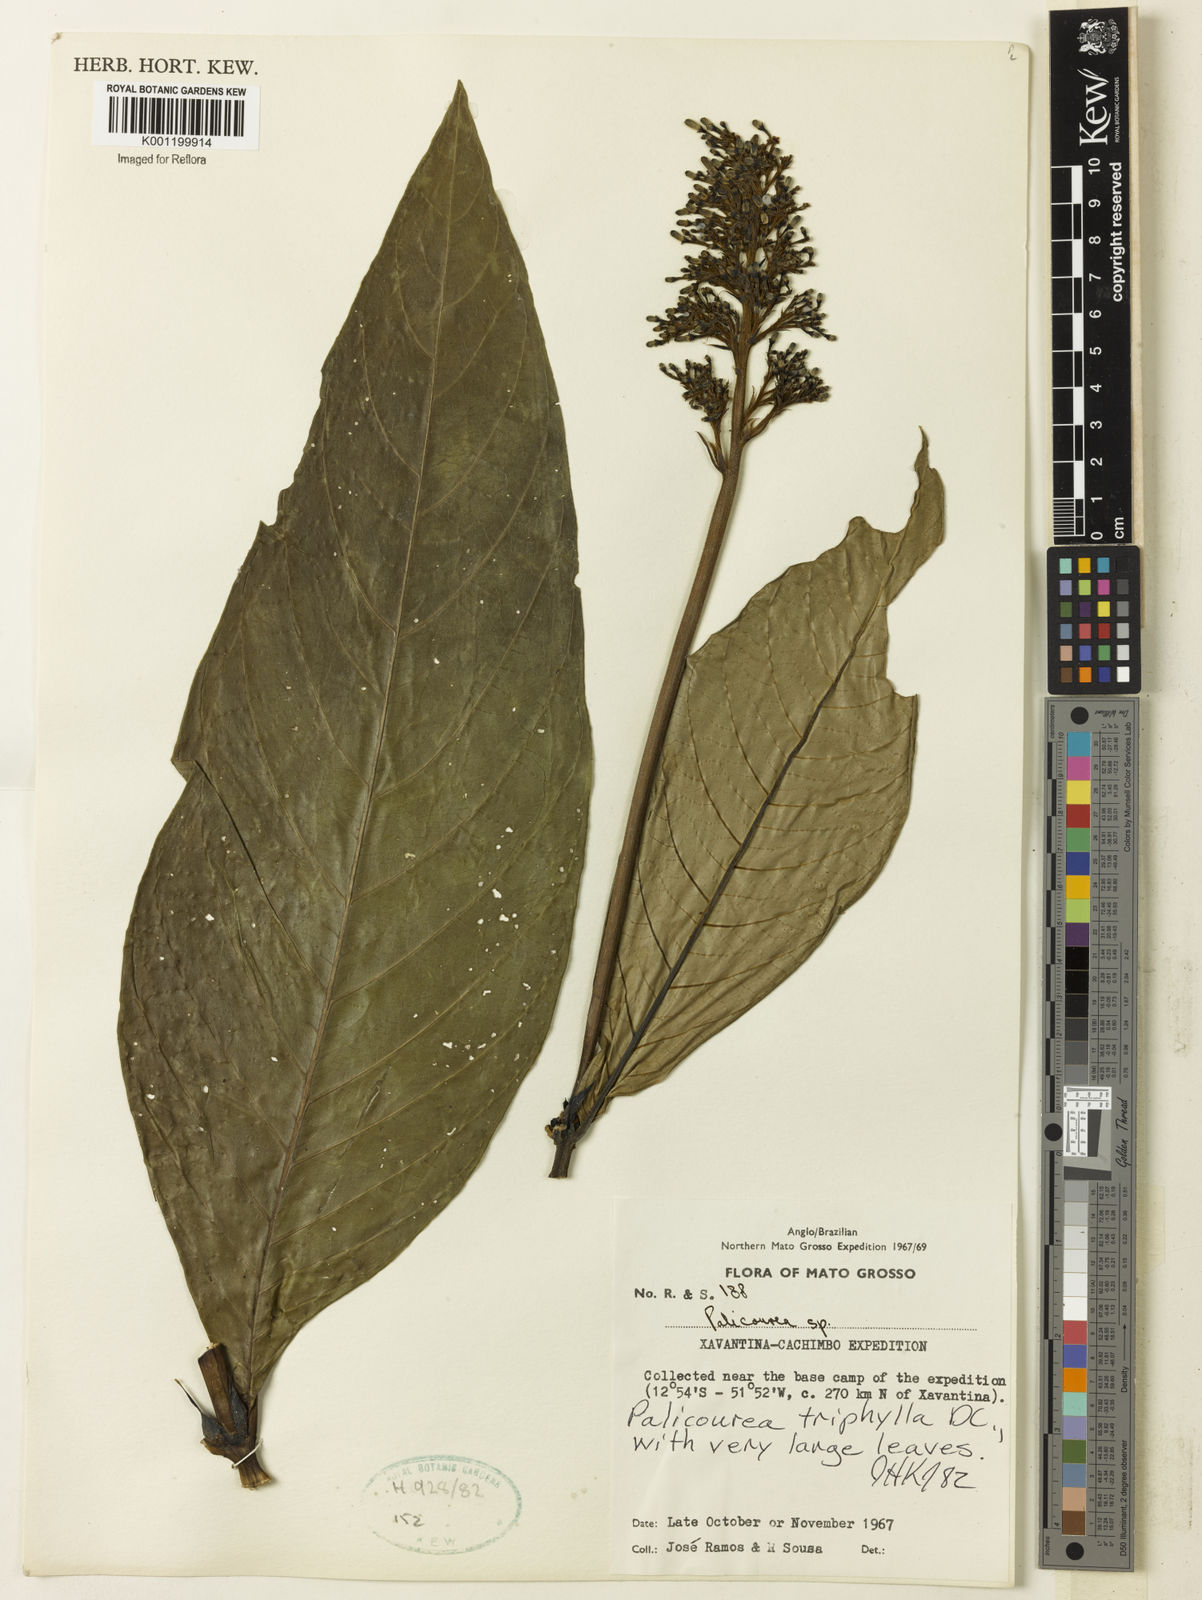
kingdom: Plantae
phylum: Tracheophyta
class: Magnoliopsida
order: Gentianales
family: Rubiaceae
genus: Palicourea
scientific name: Palicourea triphylla
